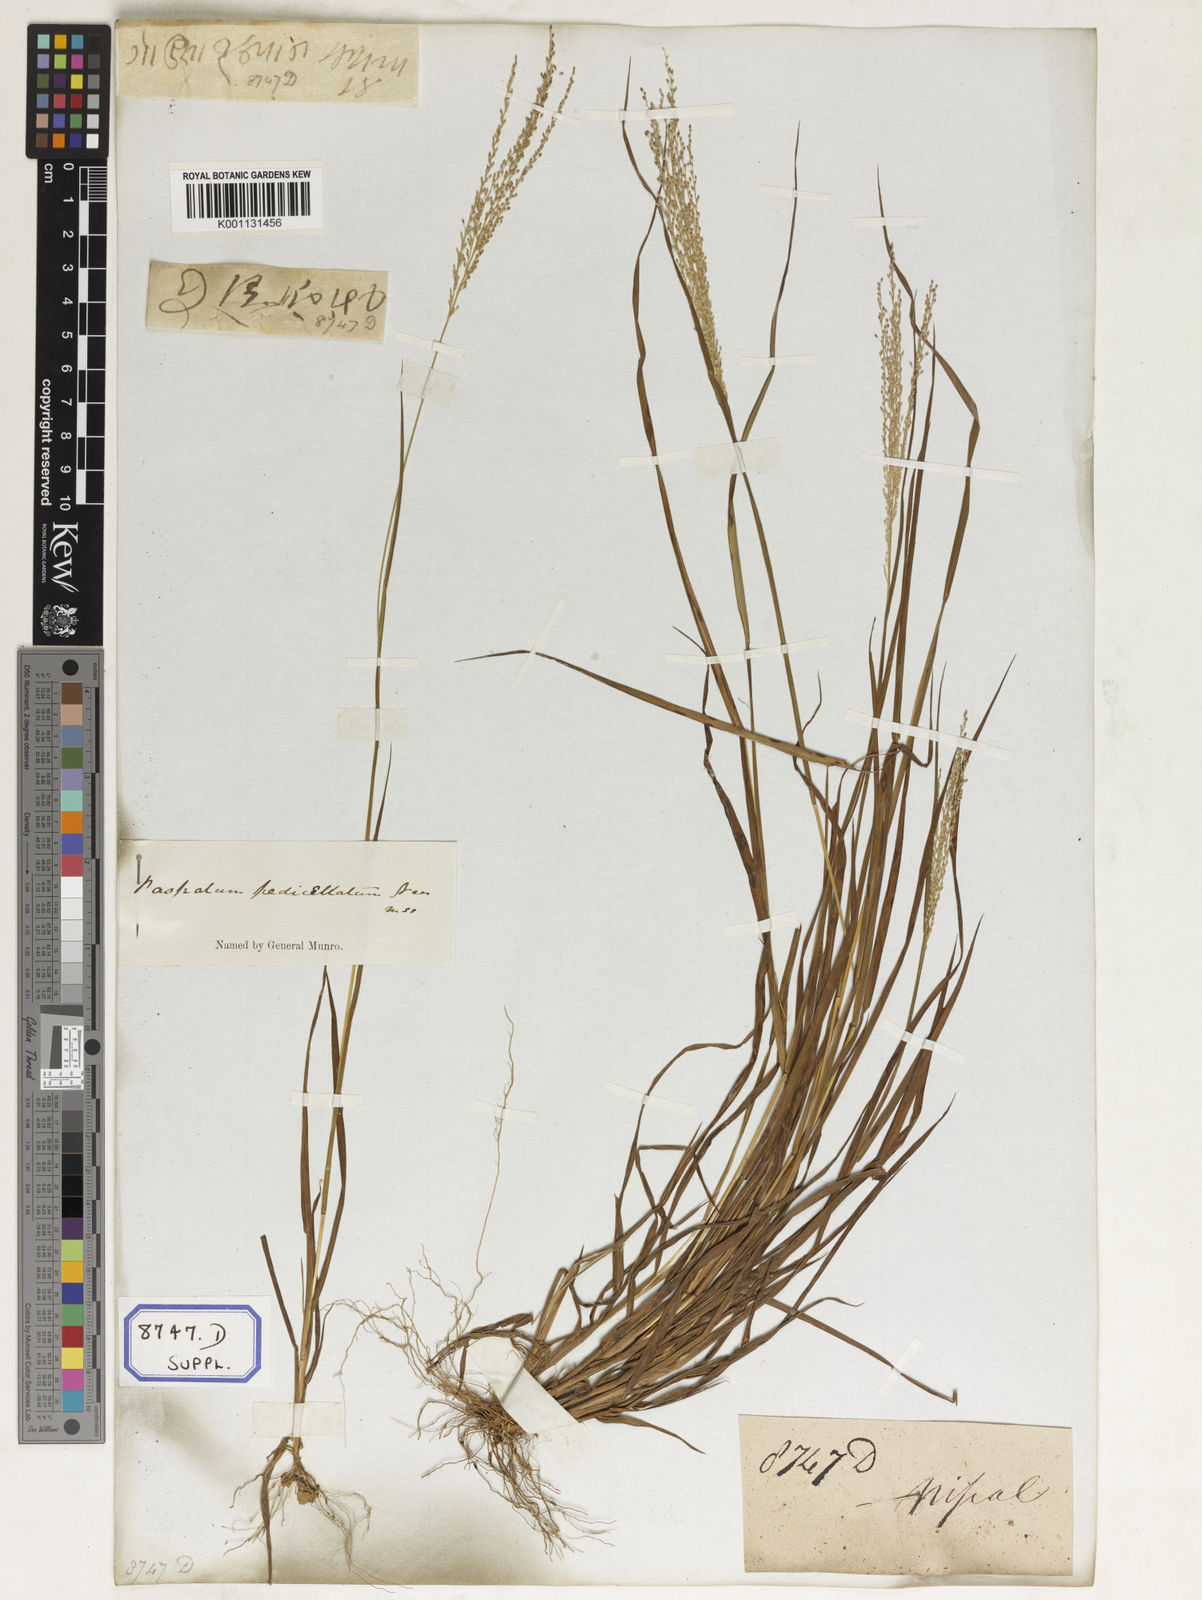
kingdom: Plantae
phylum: Tracheophyta
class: Liliopsida
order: Poales
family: Poaceae
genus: Panicum
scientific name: Panicum
